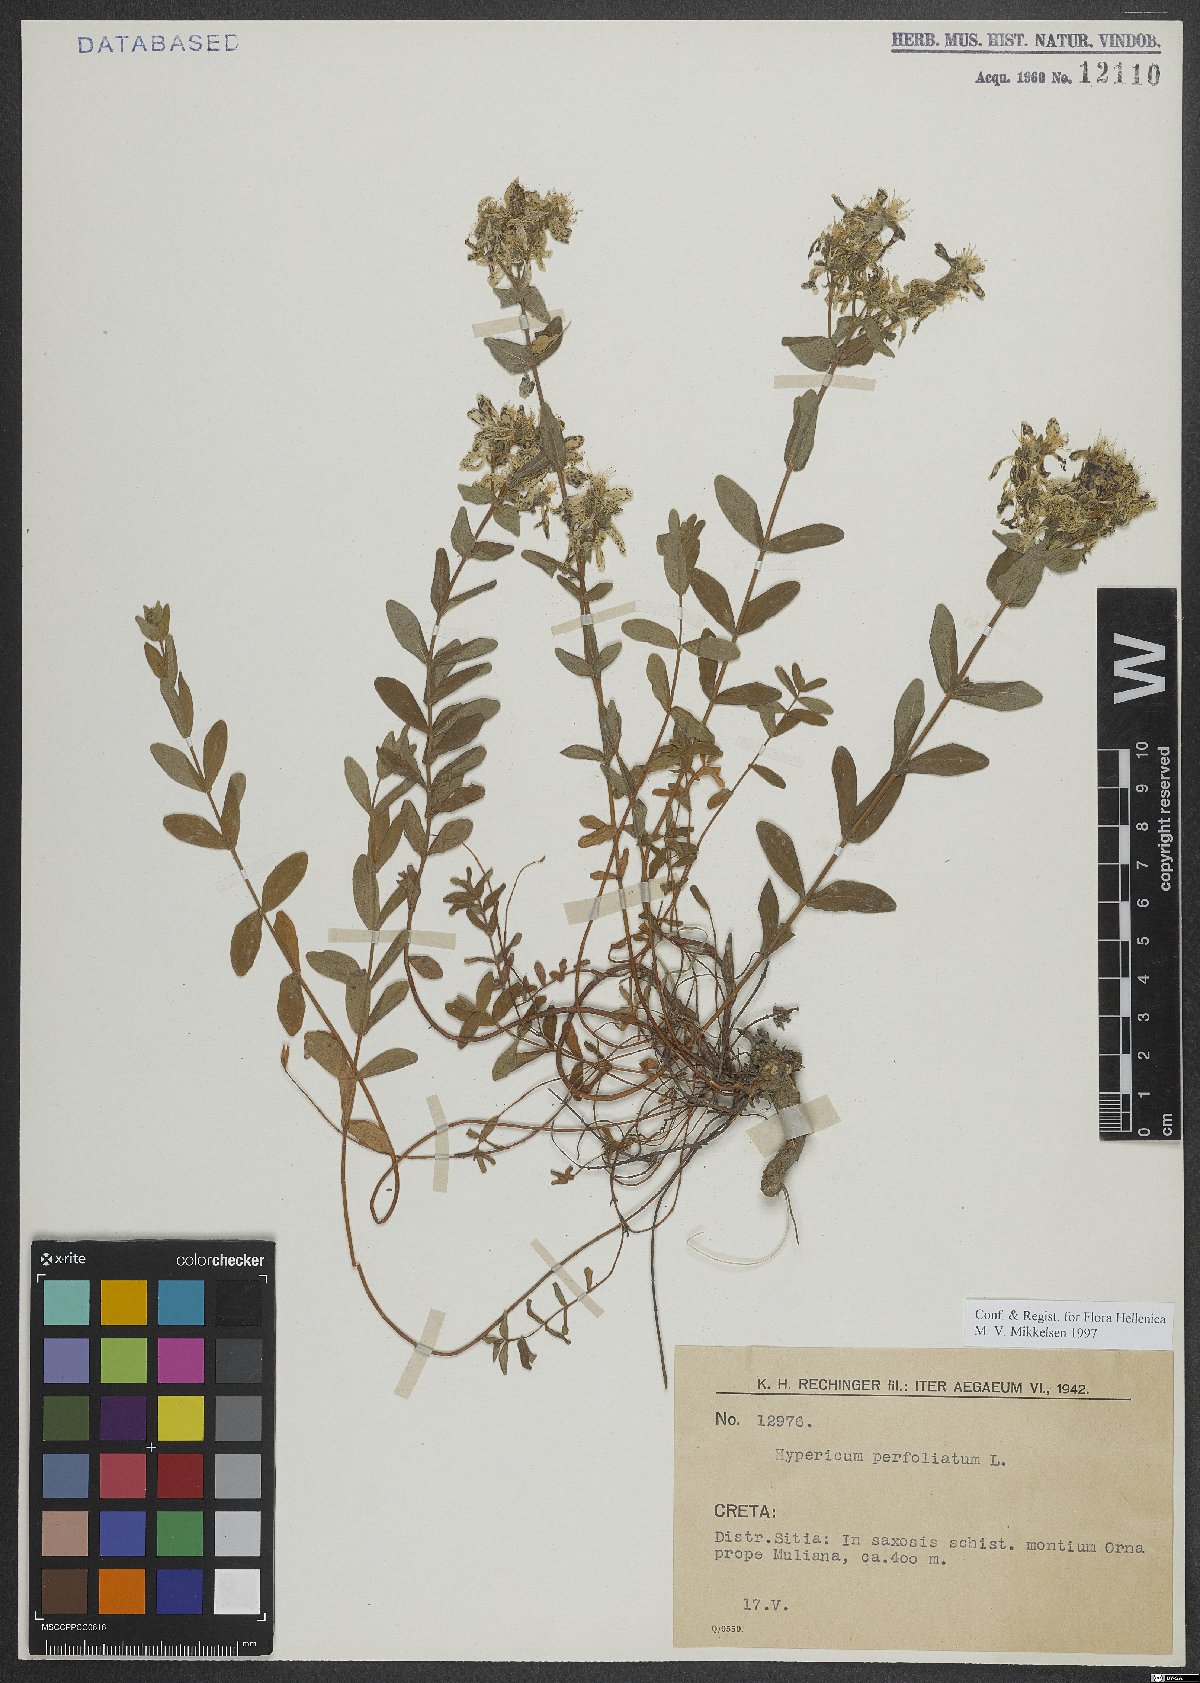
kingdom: Plantae
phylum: Tracheophyta
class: Magnoliopsida
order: Malpighiales
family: Hypericaceae
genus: Hypericum
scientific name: Hypericum perfoliatum
